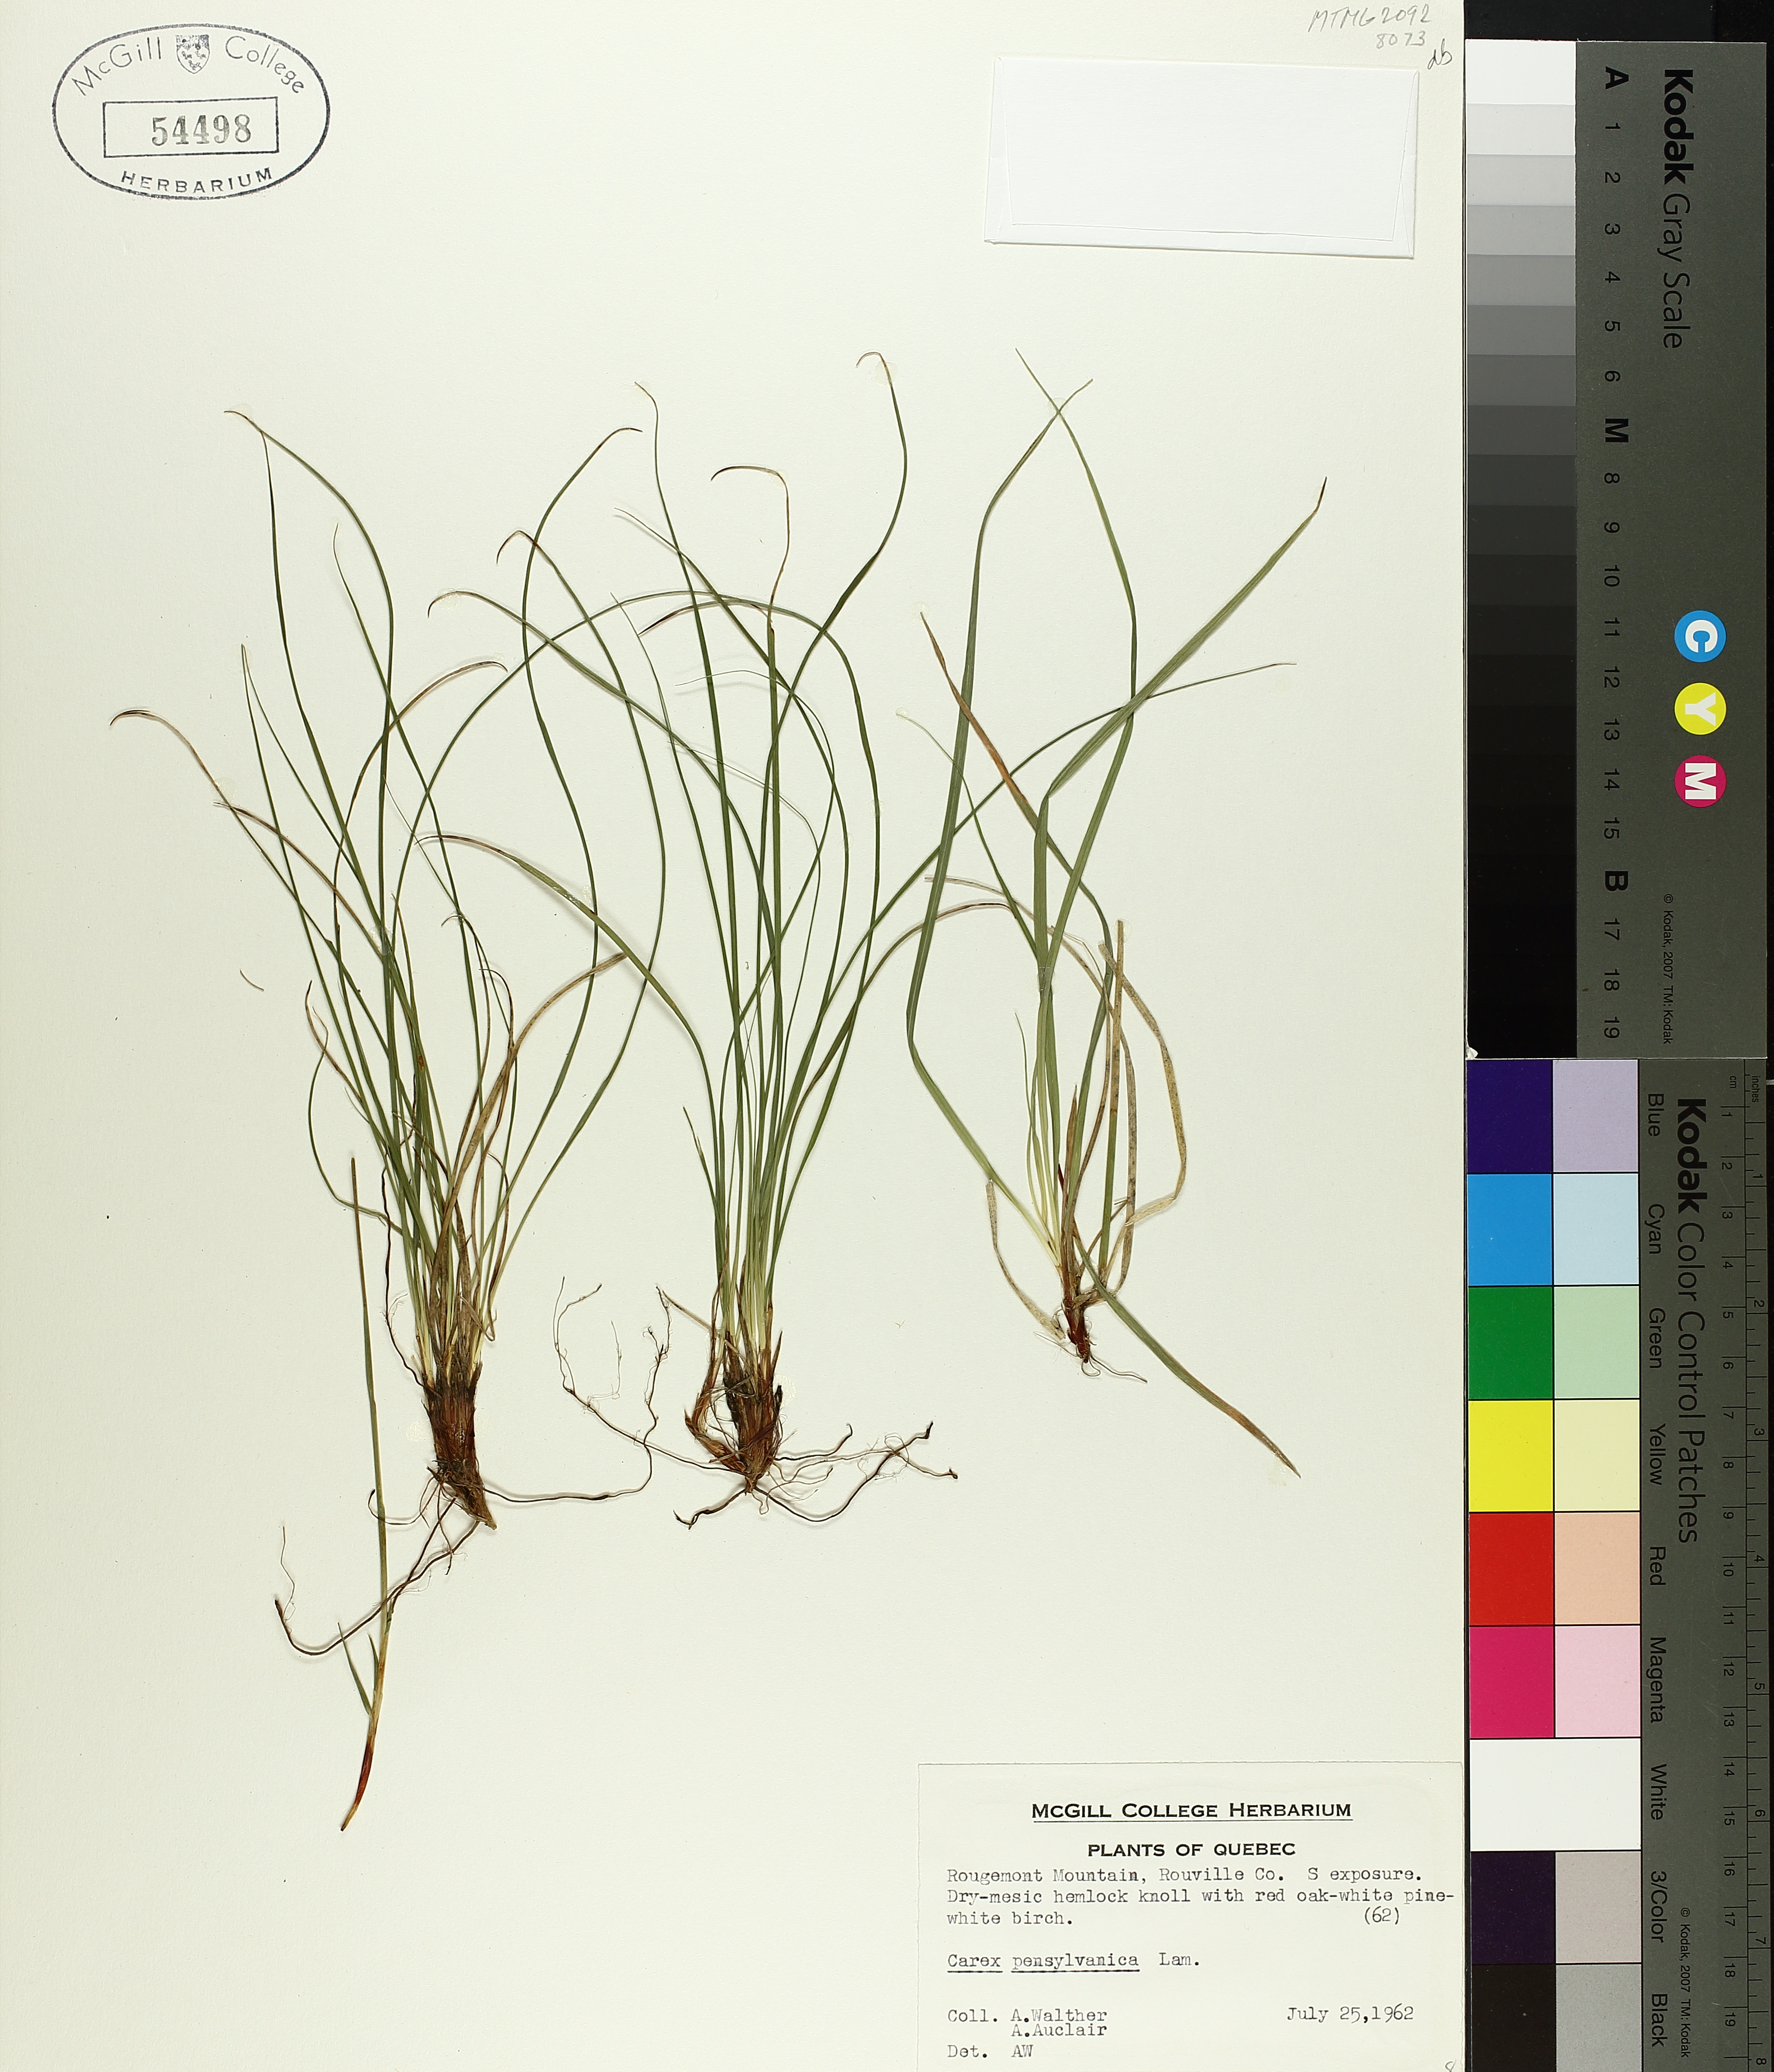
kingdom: Plantae
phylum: Tracheophyta
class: Liliopsida
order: Poales
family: Cyperaceae
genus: Carex
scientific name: Carex pensylvanica
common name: Common oak sedge
